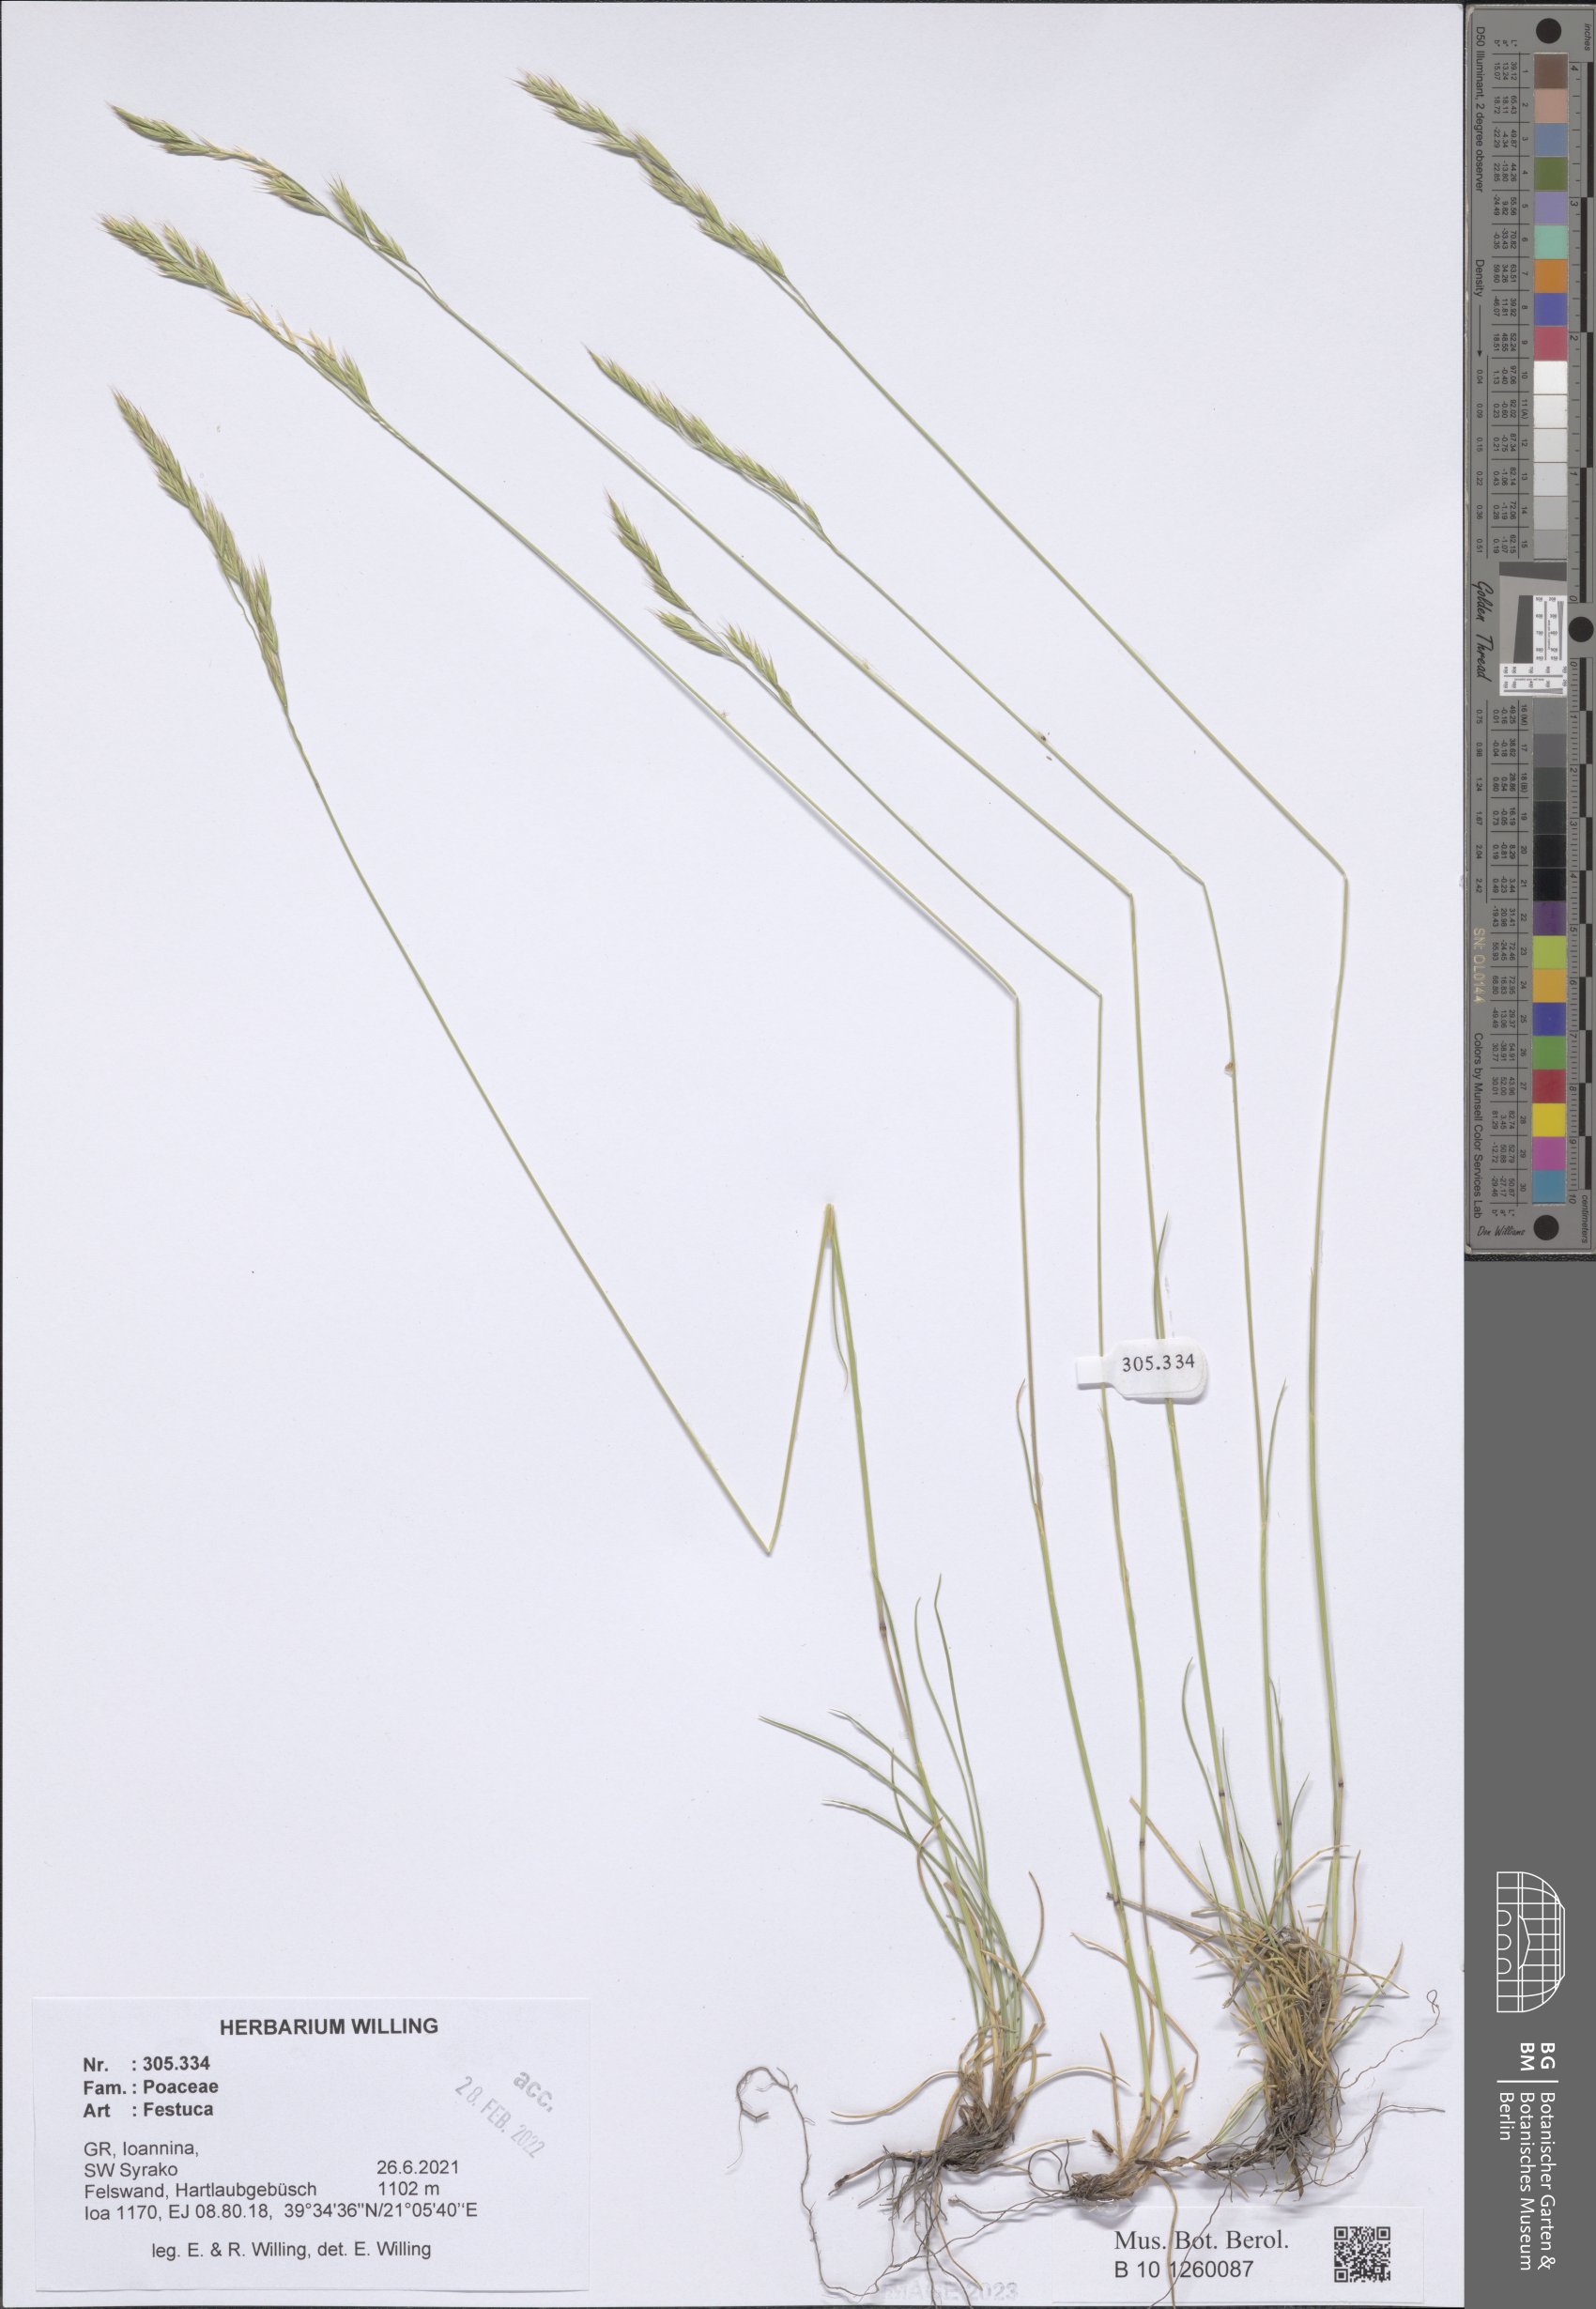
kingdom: Plantae
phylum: Tracheophyta
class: Liliopsida
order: Poales
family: Poaceae
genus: Festuca
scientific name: Festuca
